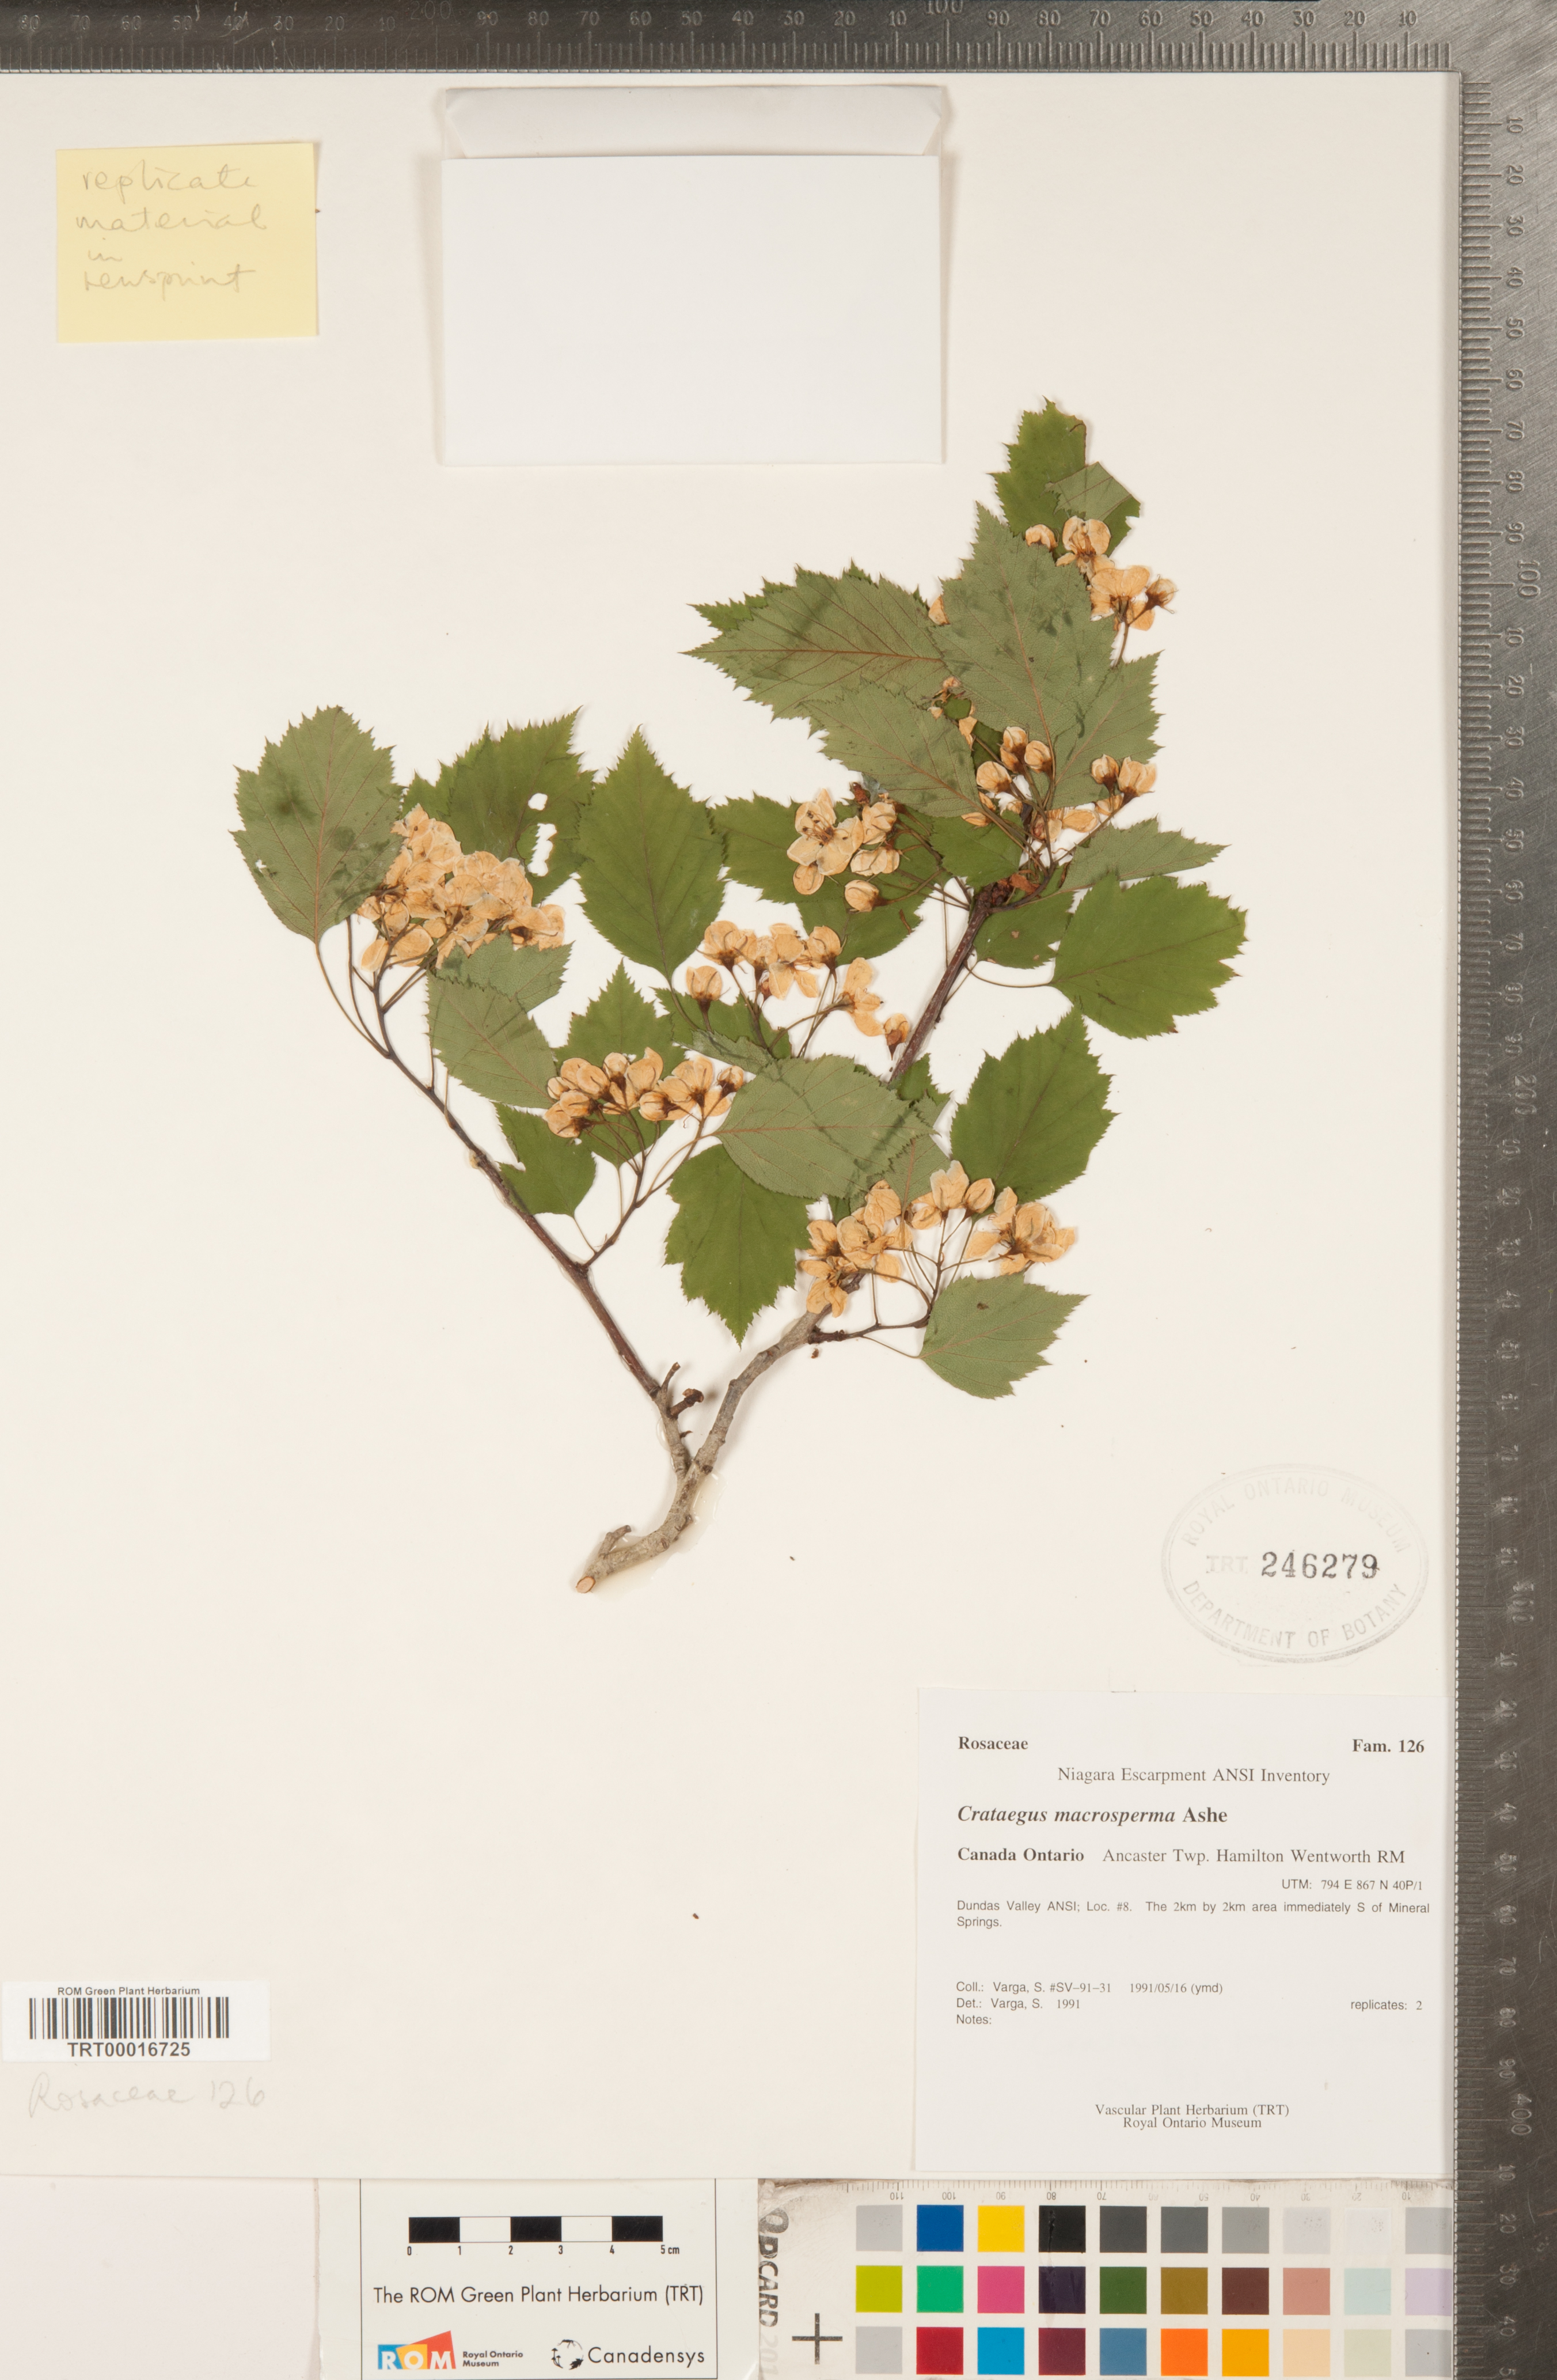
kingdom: Plantae
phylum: Tracheophyta
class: Magnoliopsida
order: Rosales
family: Rosaceae
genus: Crataegus
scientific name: Crataegus macrosperma
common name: Variable hawthorn
